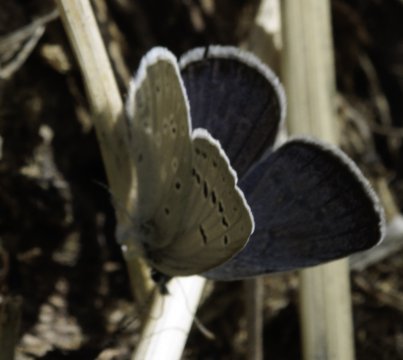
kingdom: Animalia
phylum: Arthropoda
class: Insecta
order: Lepidoptera
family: Lycaenidae
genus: Icaricia
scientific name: Icaricia icarioides
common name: Boisduval's Blue
